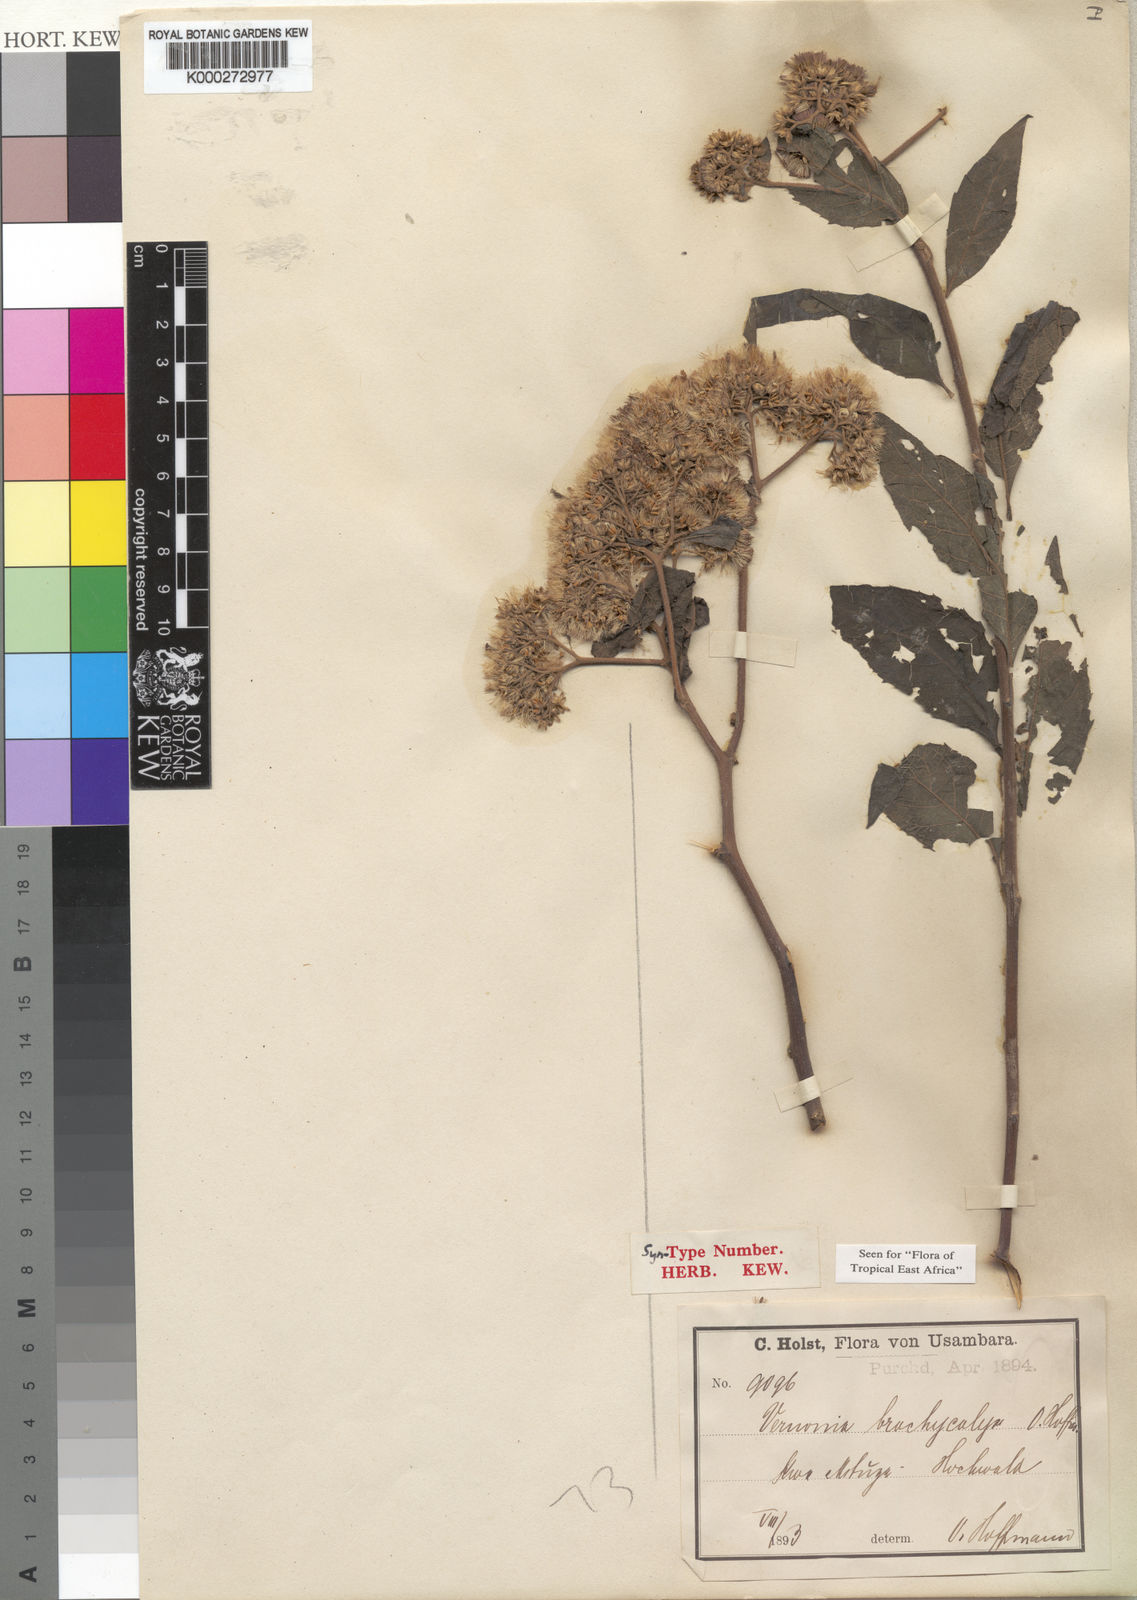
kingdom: Plantae
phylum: Tracheophyta
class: Magnoliopsida
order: Asterales
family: Asteraceae
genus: Hoffmannanthus
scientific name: Hoffmannanthus abbotianus
